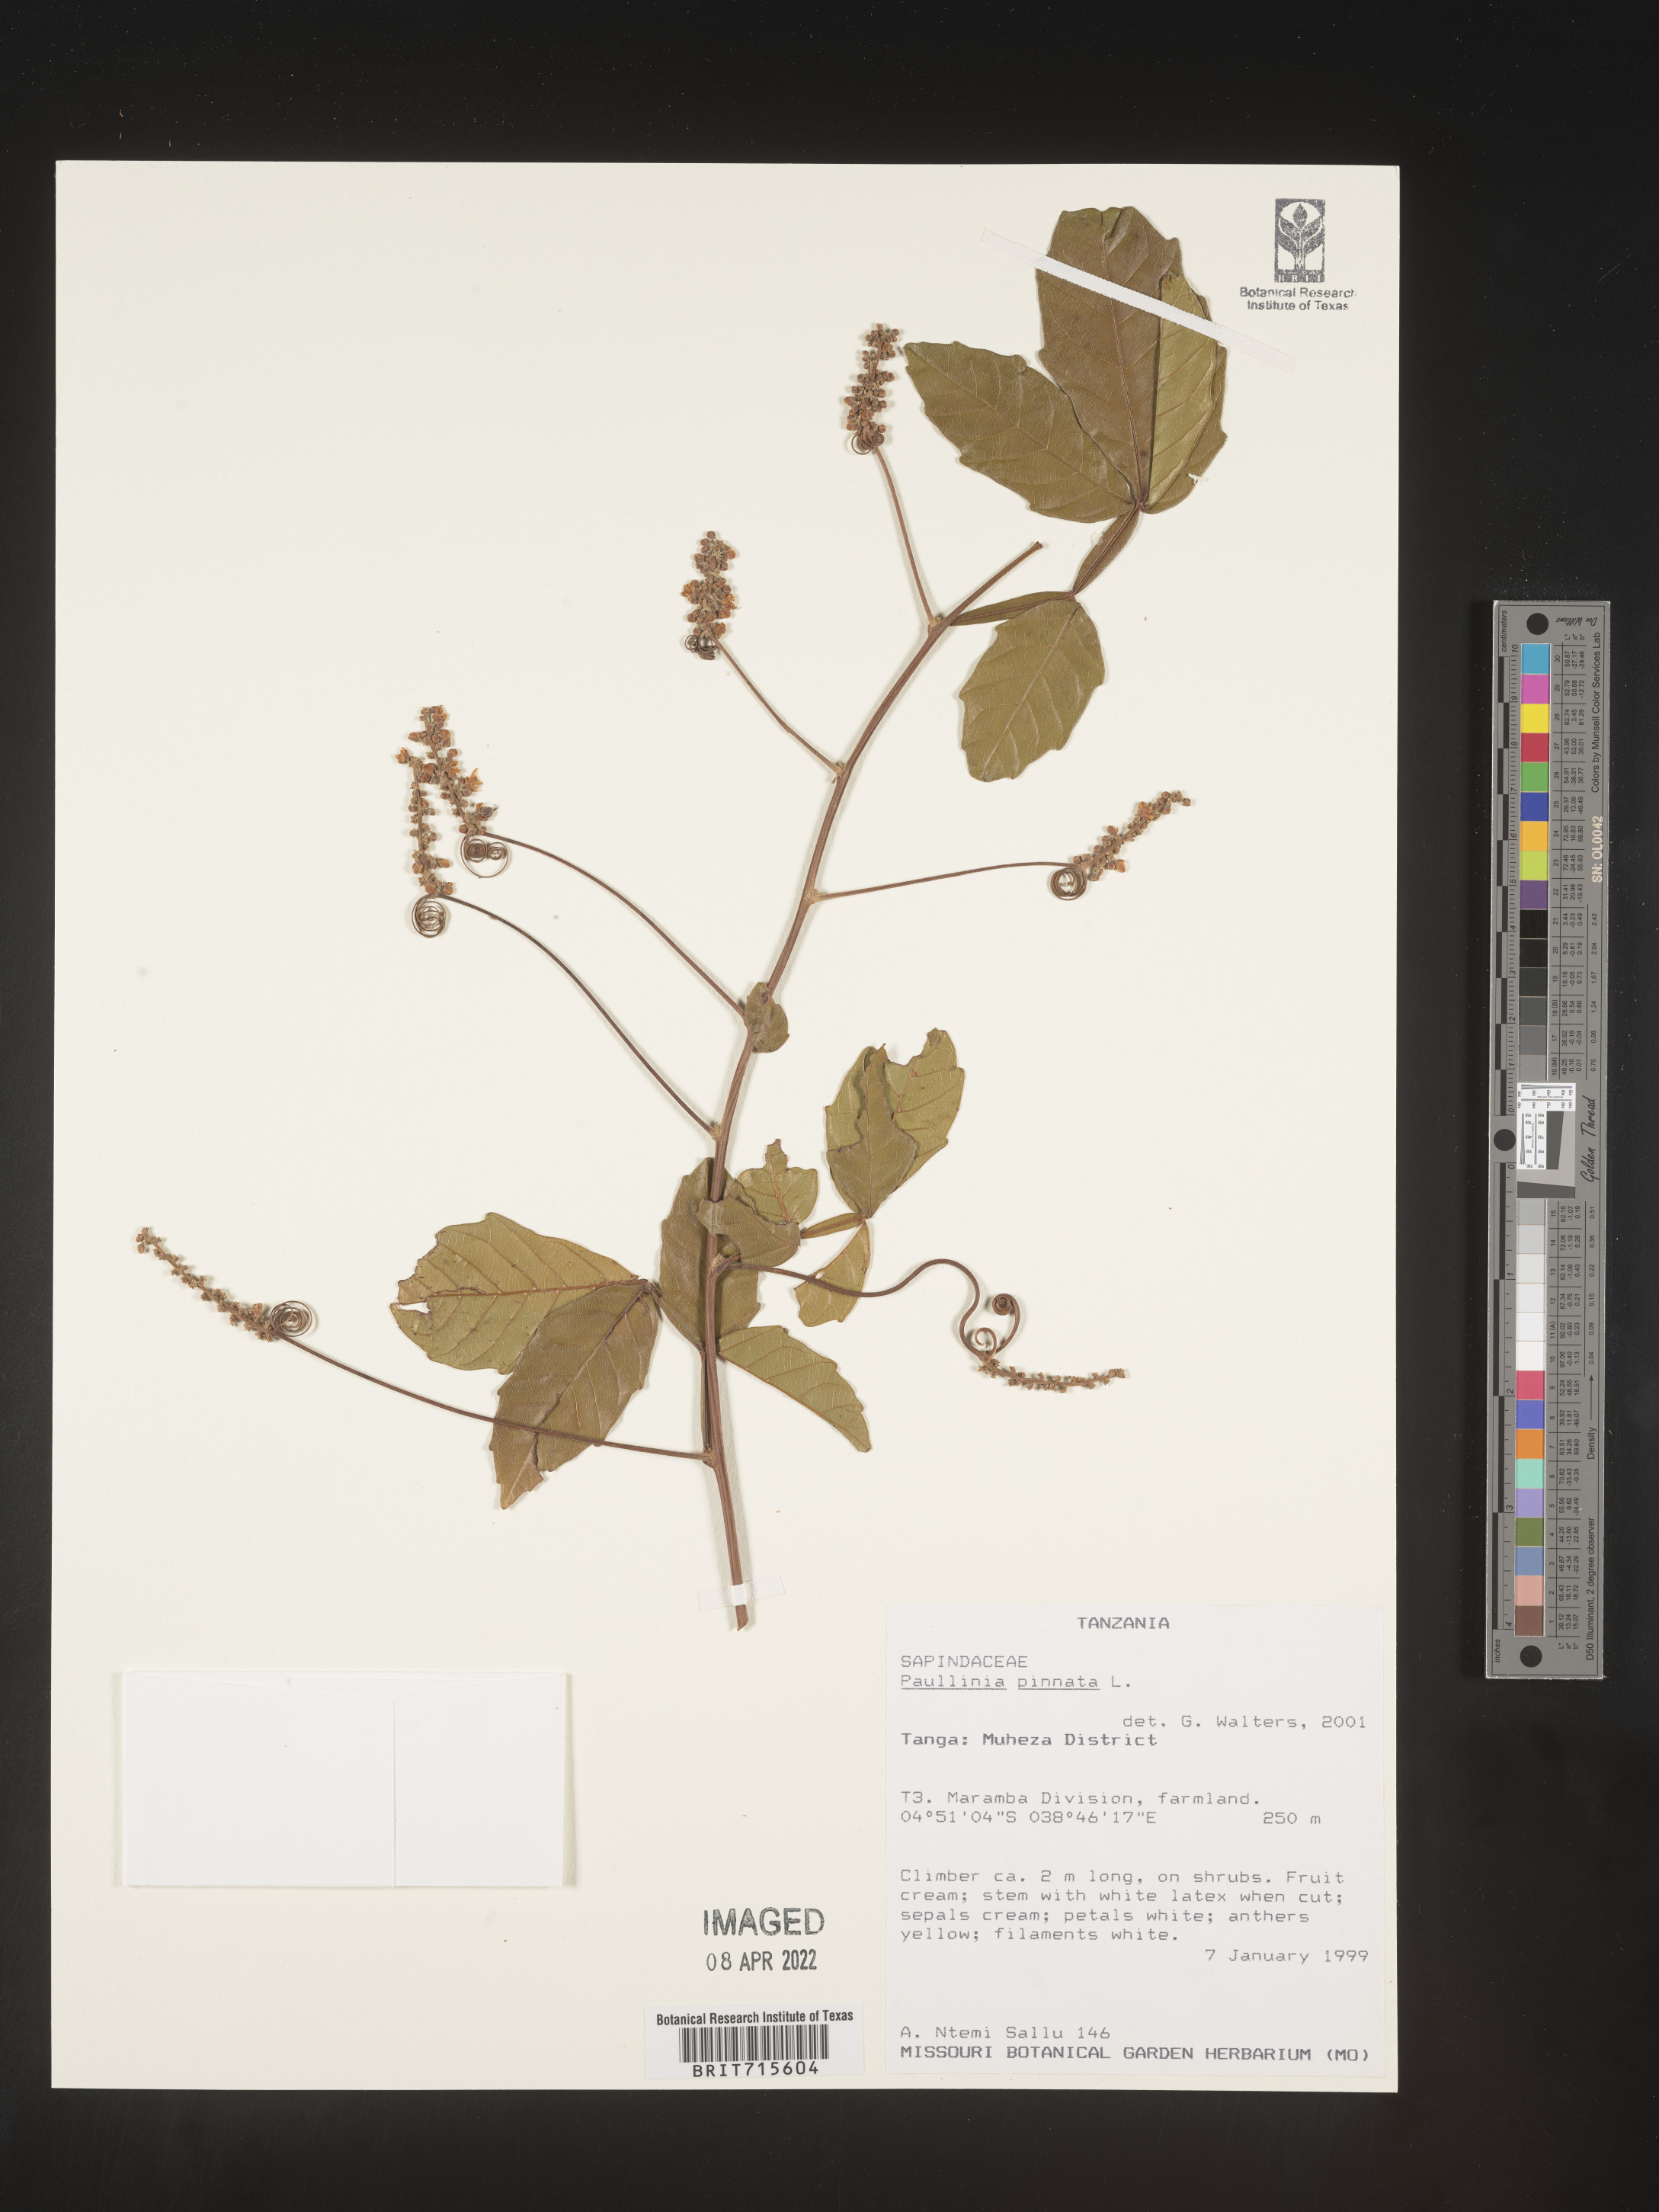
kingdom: Plantae
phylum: Tracheophyta
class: Magnoliopsida
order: Sapindales
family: Sapindaceae
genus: Paullinia
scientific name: Paullinia
